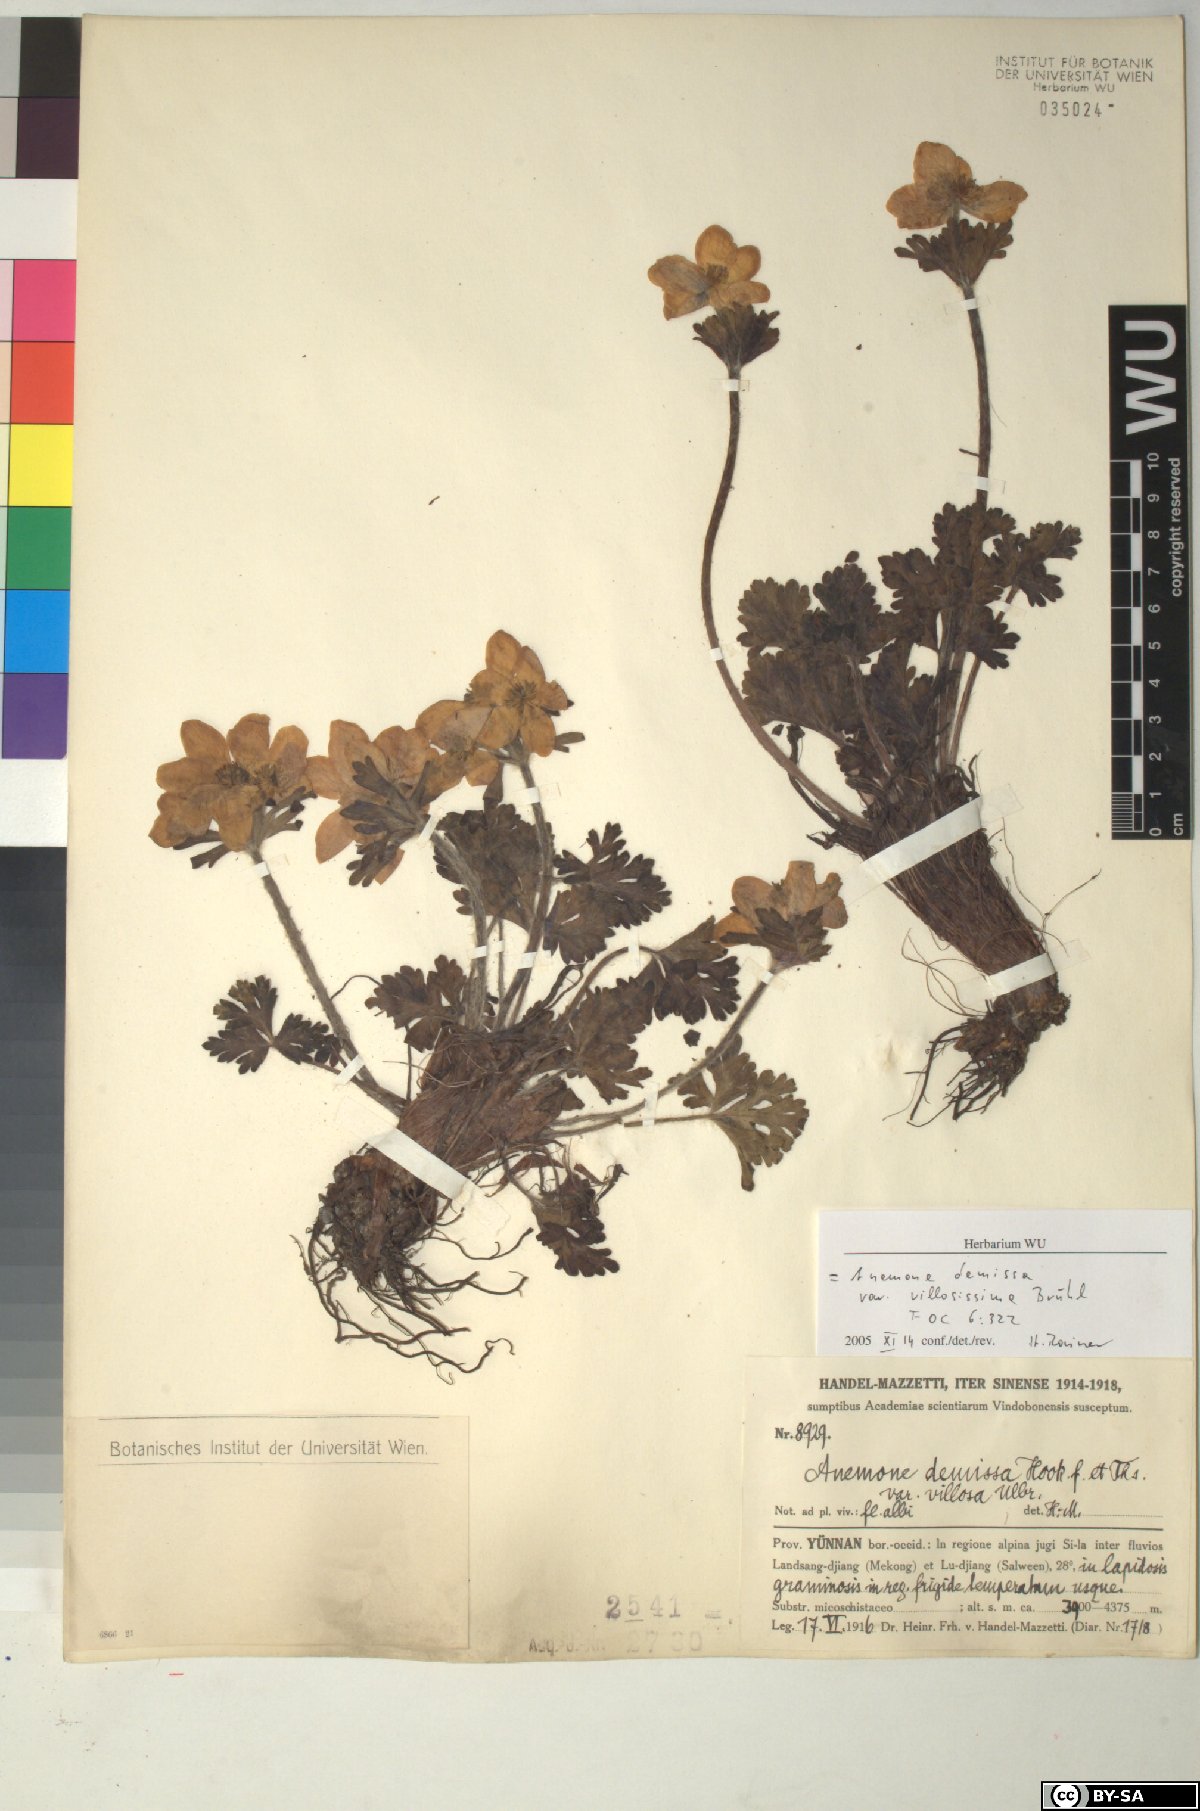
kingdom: Plantae
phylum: Tracheophyta
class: Magnoliopsida
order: Ranunculales
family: Ranunculaceae
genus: Anemonastrum
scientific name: Anemonastrum demissum
